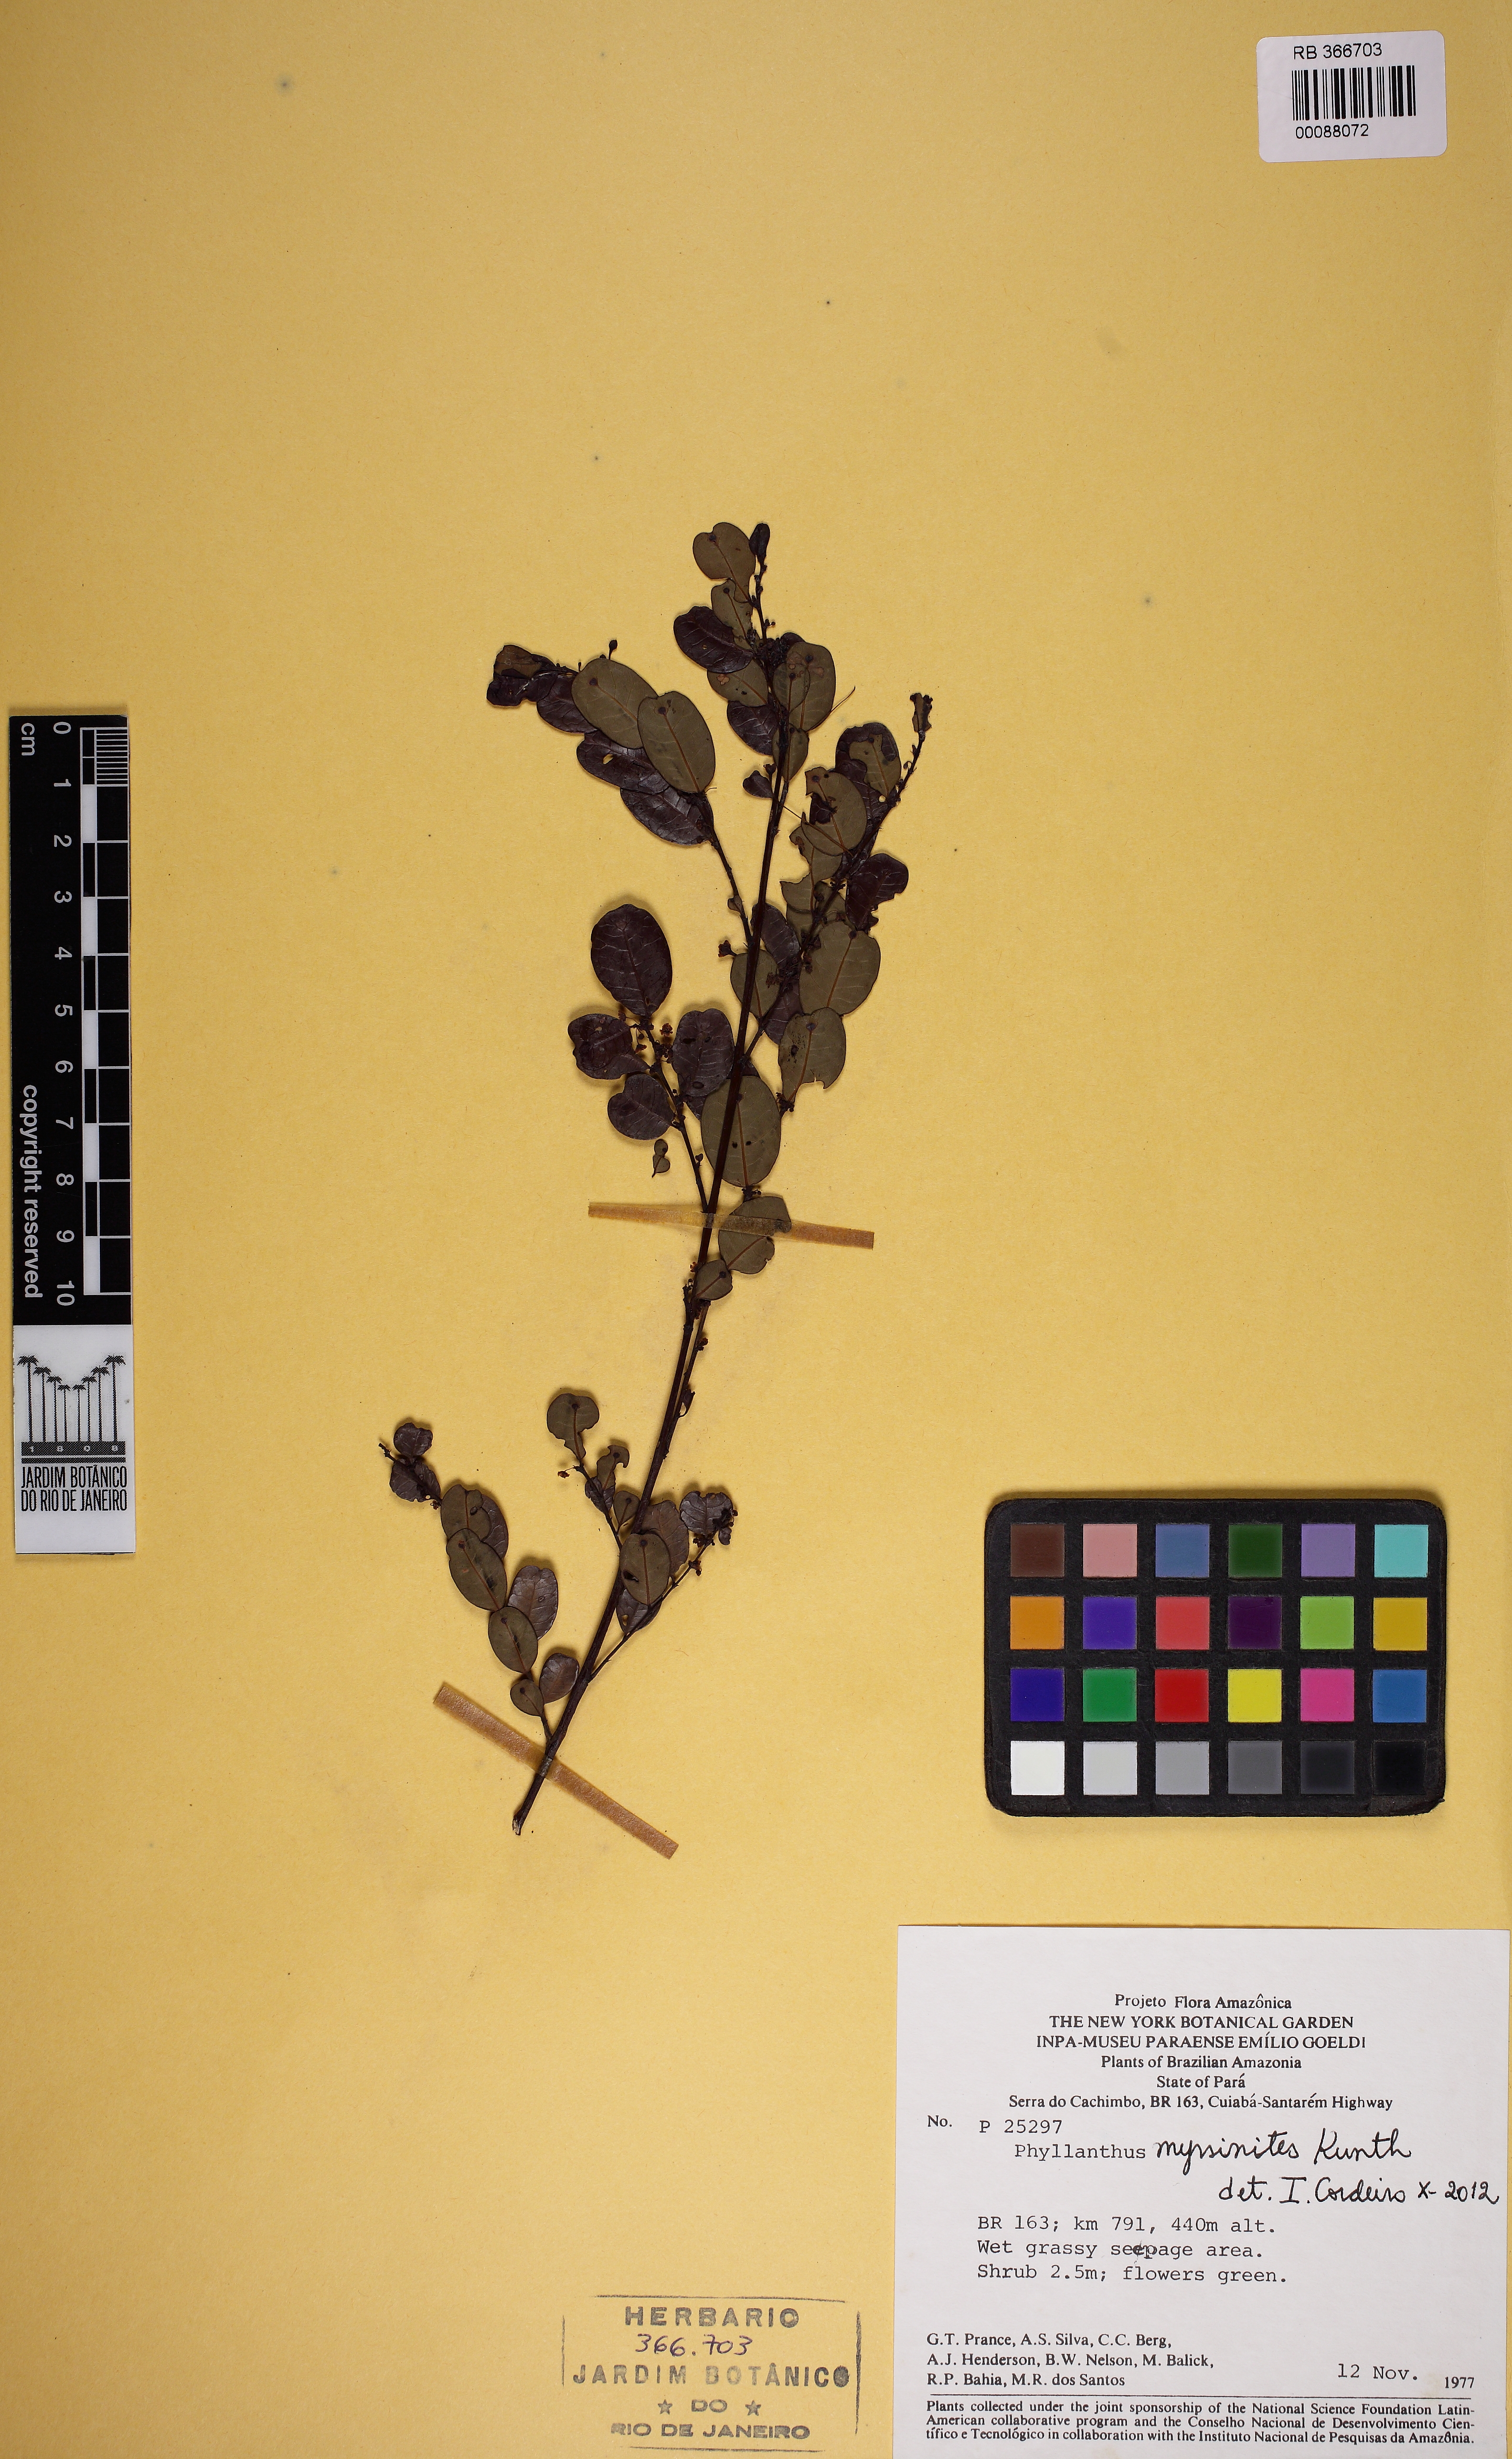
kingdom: Plantae
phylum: Tracheophyta
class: Magnoliopsida
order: Malpighiales
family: Phyllanthaceae
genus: Phyllanthus
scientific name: Phyllanthus myrsinites
